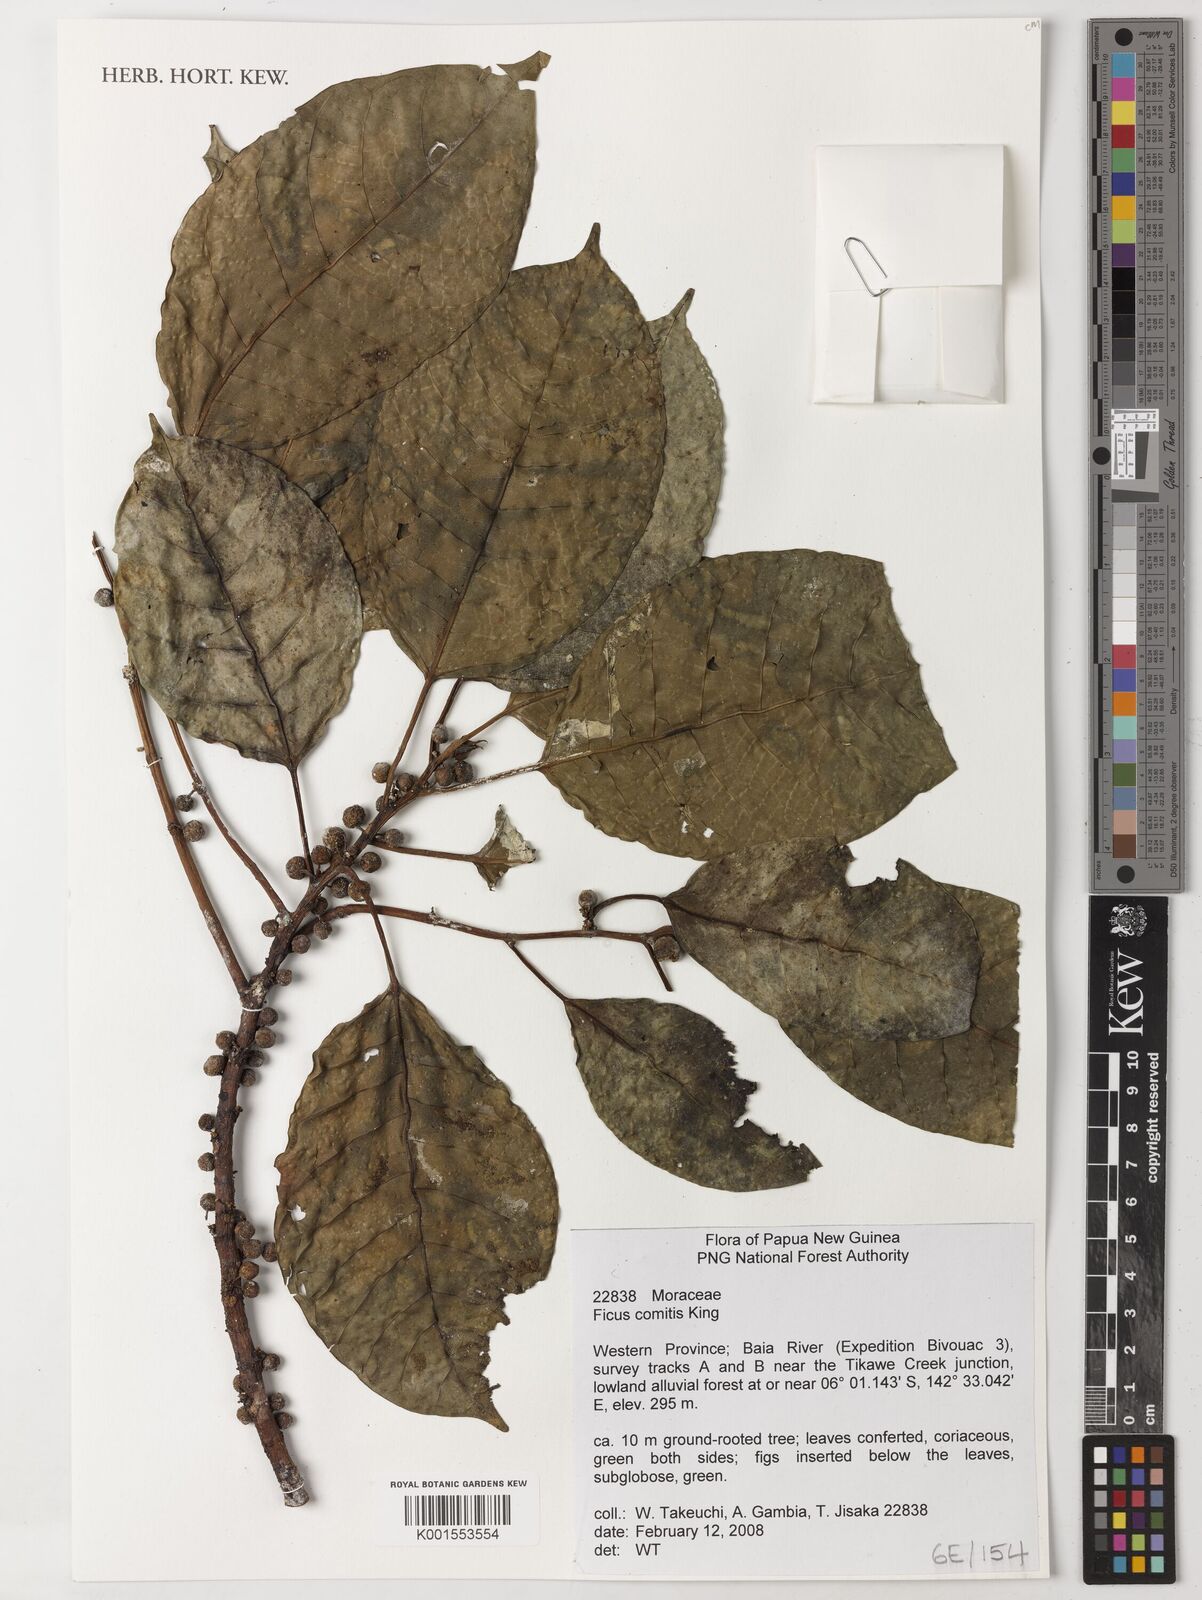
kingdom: Plantae
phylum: Tracheophyta
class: Magnoliopsida
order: Rosales
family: Moraceae
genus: Ficus
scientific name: Ficus comitis
